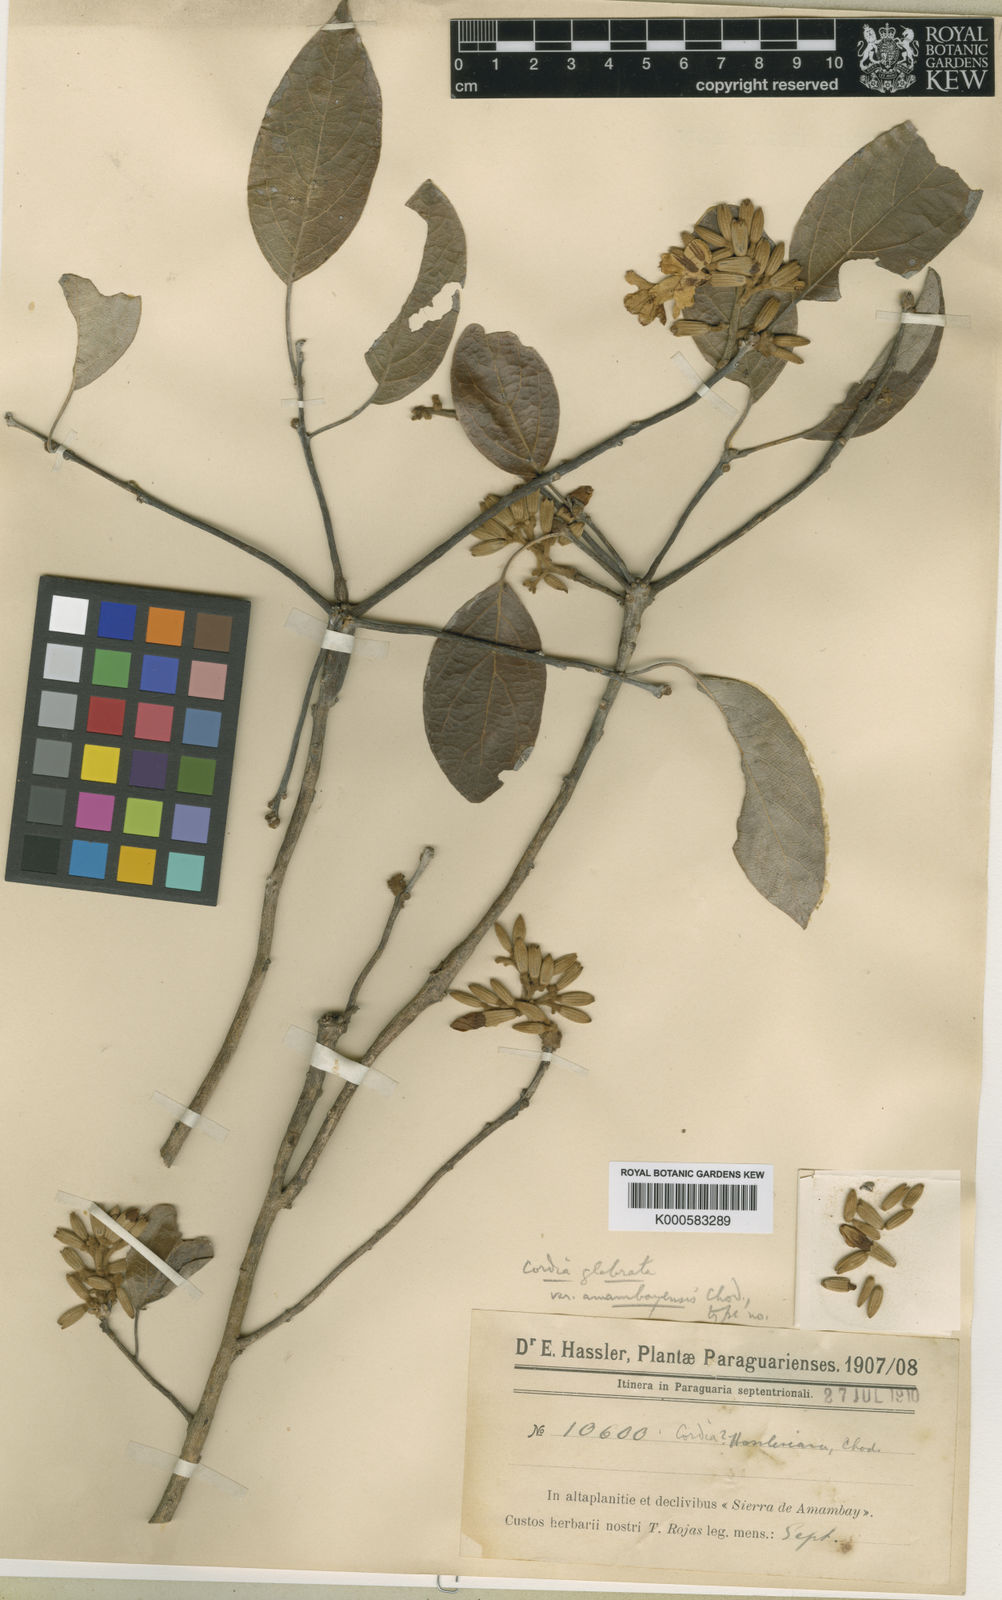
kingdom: Plantae
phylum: Tracheophyta
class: Magnoliopsida
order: Boraginales
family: Cordiaceae
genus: Cordia
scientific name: Cordia glabrata
